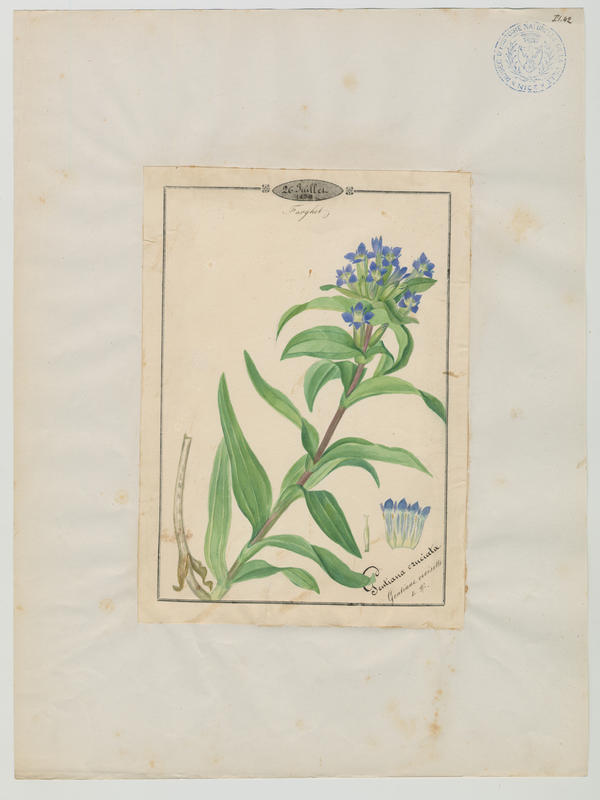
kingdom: Plantae
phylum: Tracheophyta
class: Magnoliopsida
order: Gentianales
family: Gentianaceae
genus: Gentiana
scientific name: Gentiana cruciata
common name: Cross gentian
